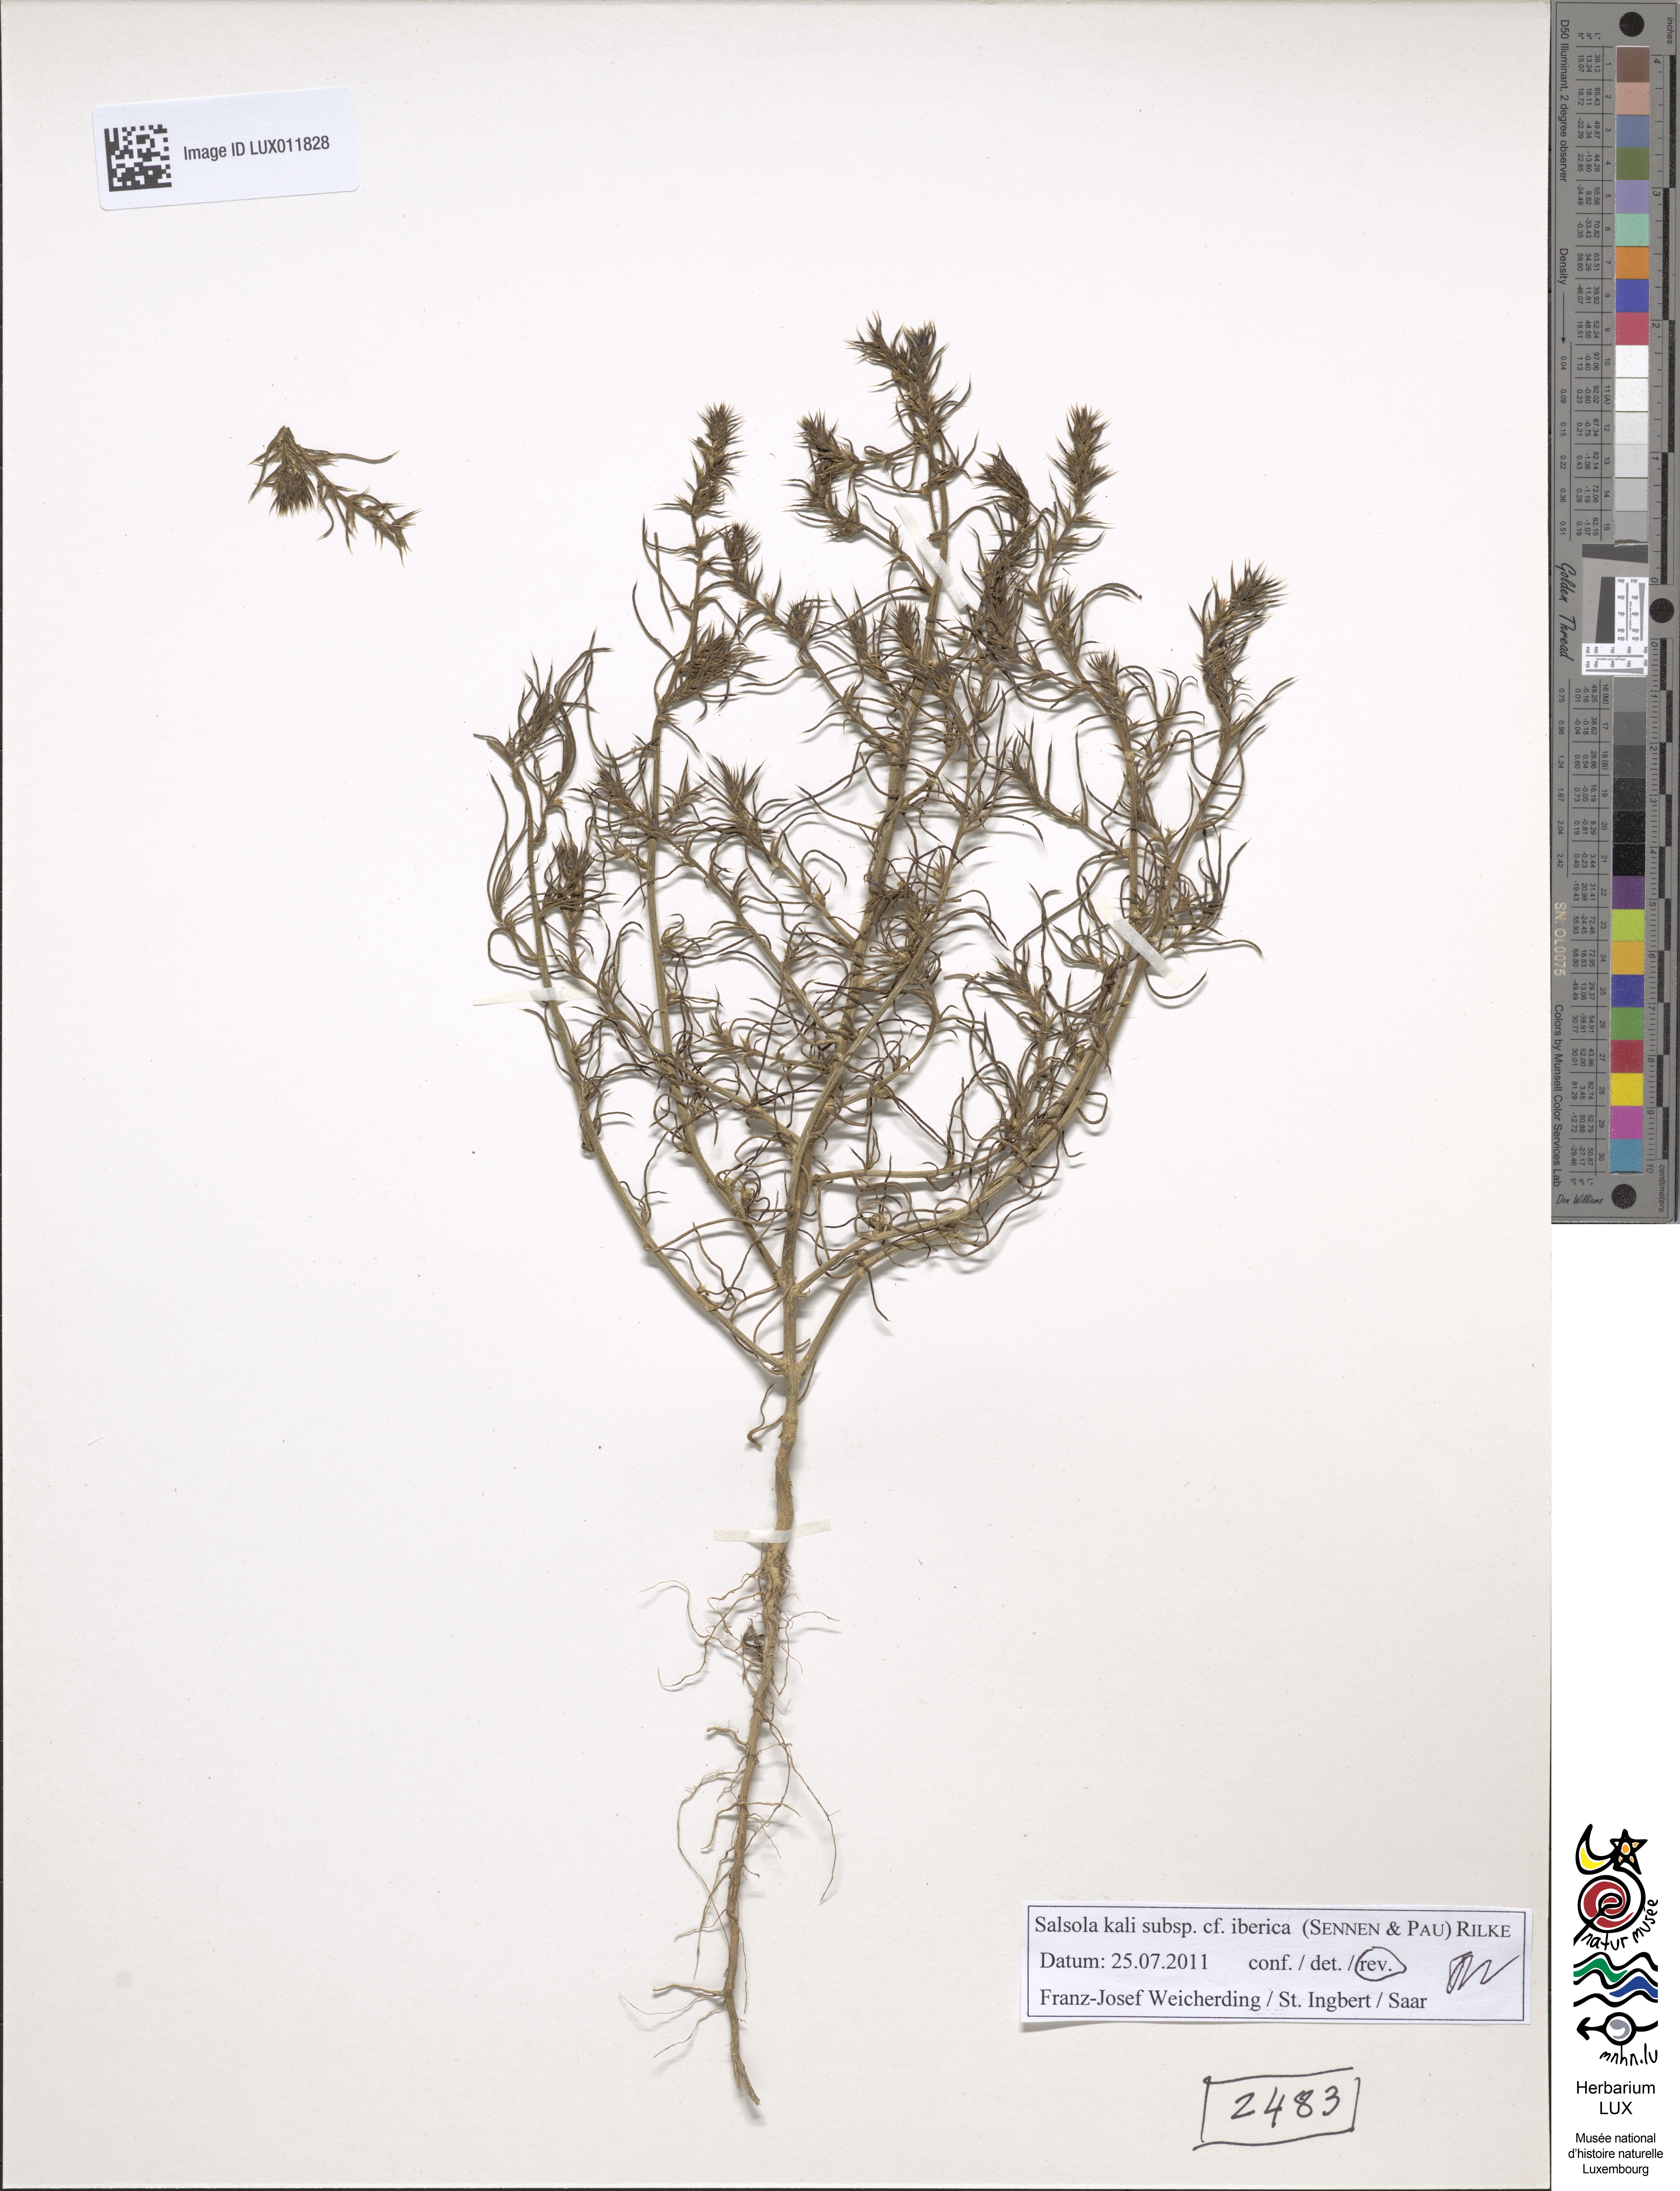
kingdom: Plantae
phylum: Tracheophyta
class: Magnoliopsida
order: Caryophyllales
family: Amaranthaceae
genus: Salsola
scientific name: Salsola kali
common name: Saltwort
